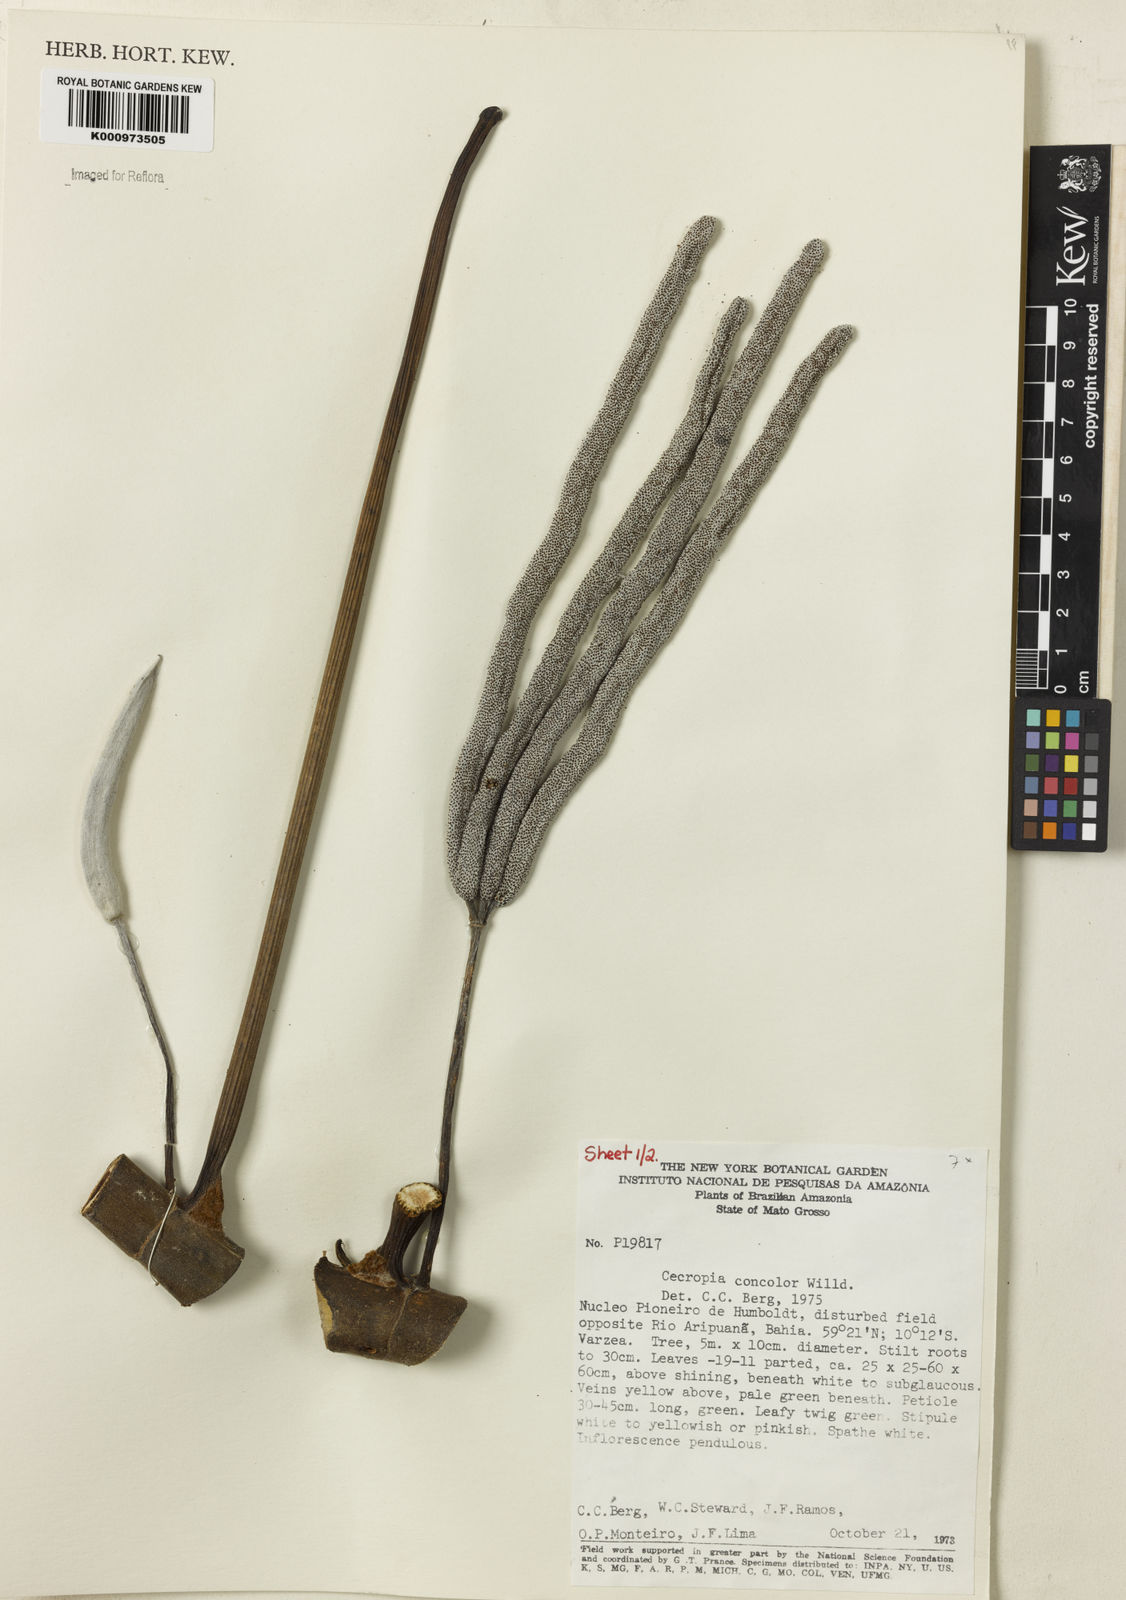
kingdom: Plantae
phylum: Tracheophyta
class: Magnoliopsida
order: Rosales
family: Urticaceae
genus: Cecropia
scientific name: Cecropia concolor
